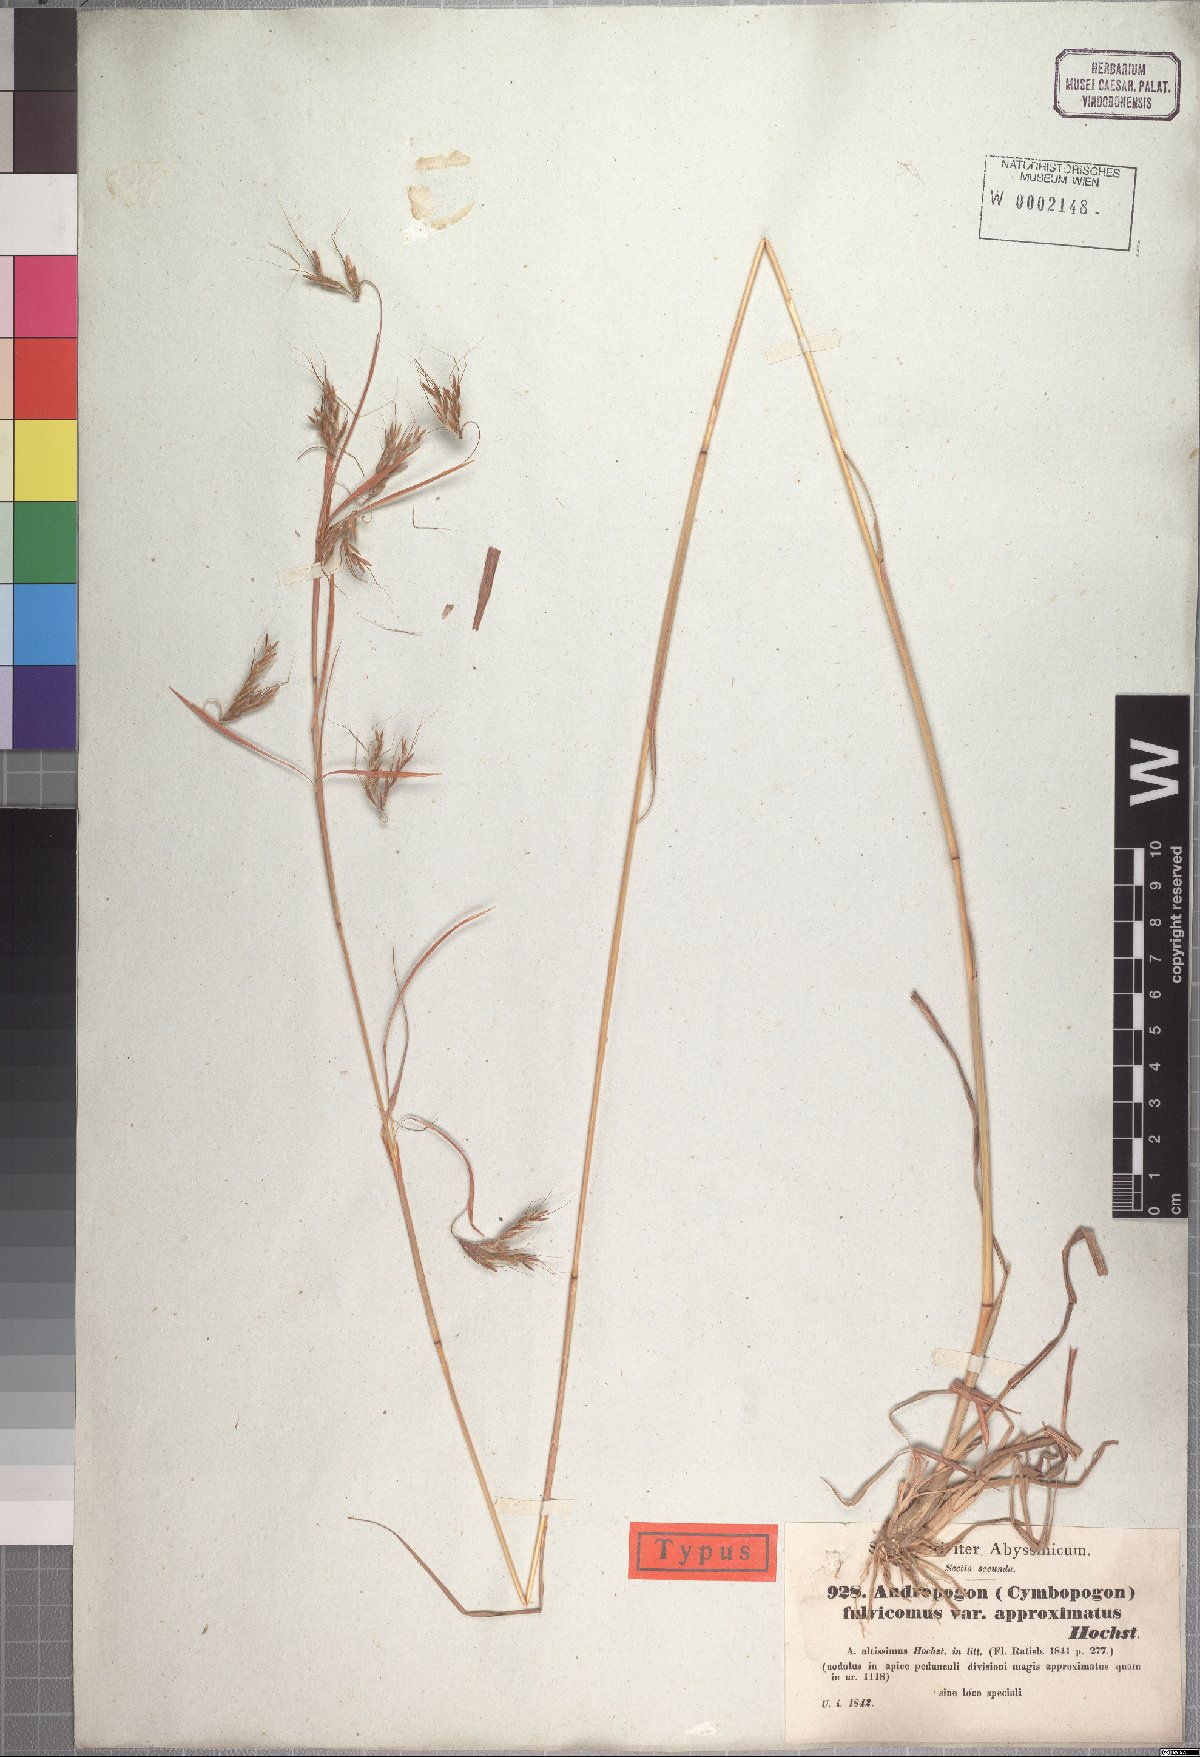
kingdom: Plantae
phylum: Tracheophyta
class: Liliopsida
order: Poales
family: Poaceae
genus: Hyparrhenia
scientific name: Hyparrhenia rufa
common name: Jaraguagrass
